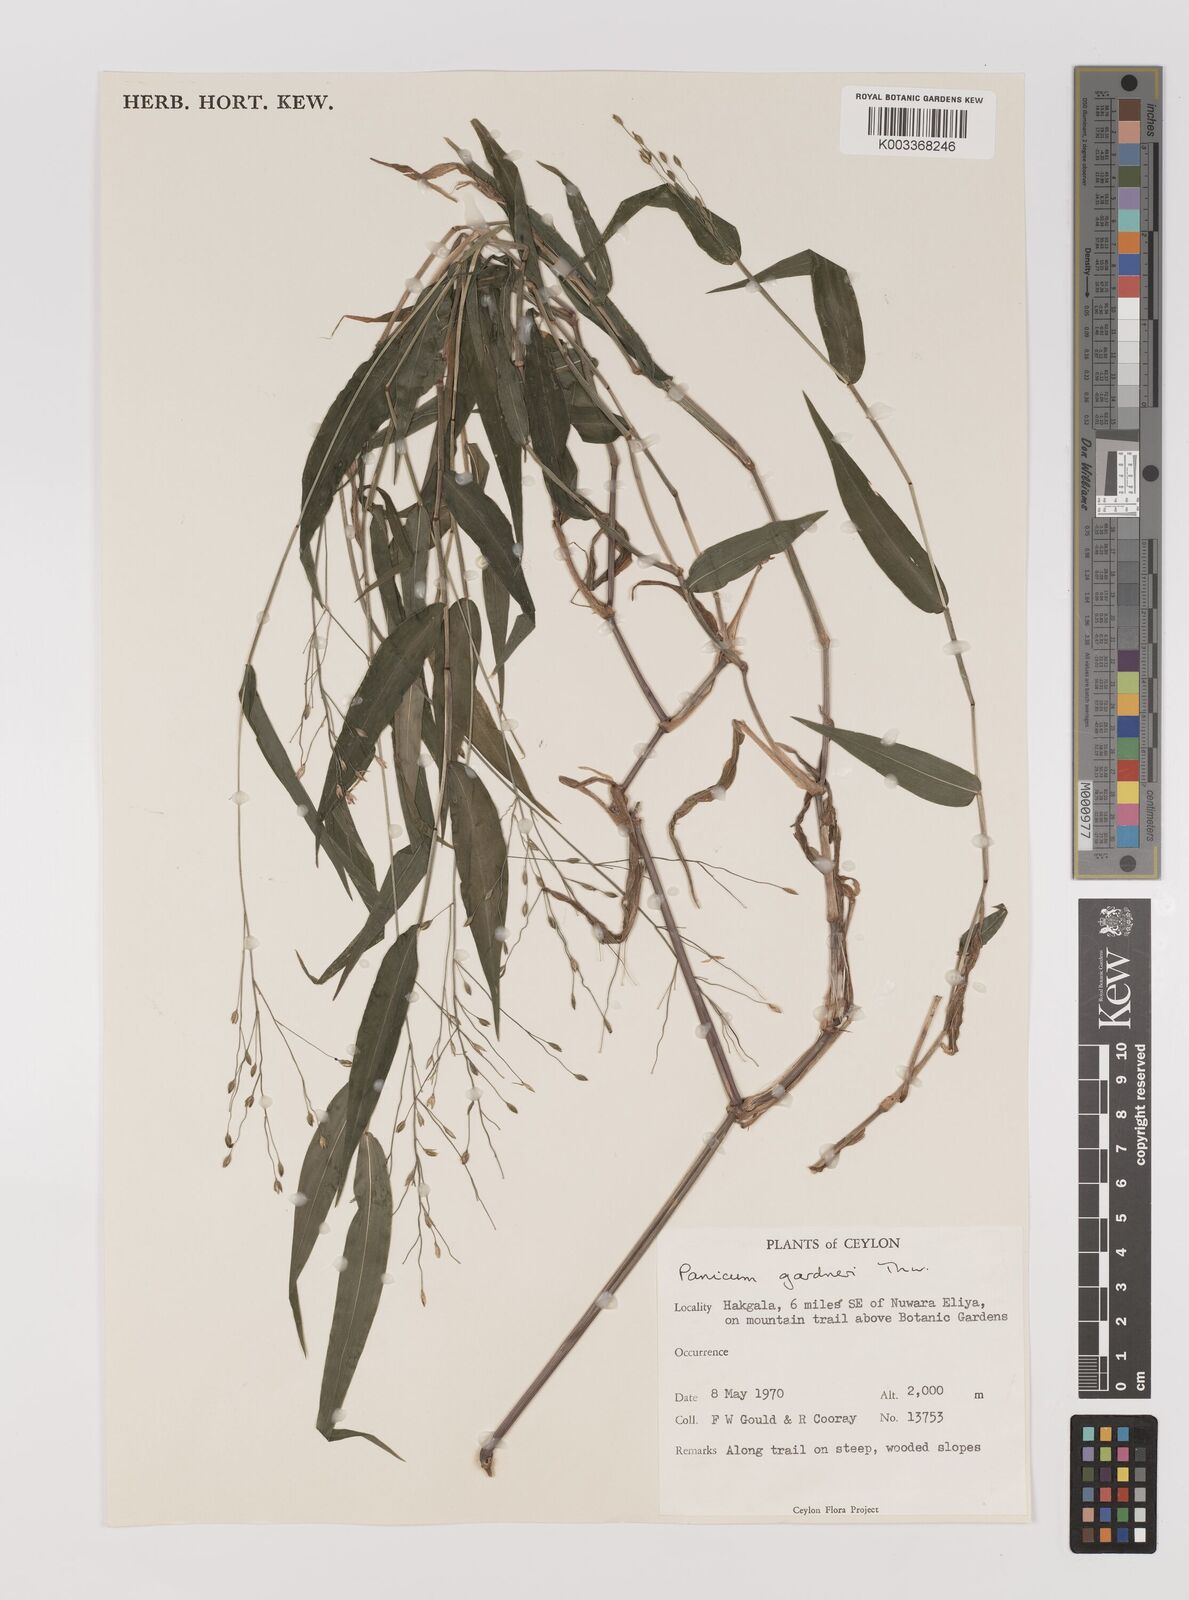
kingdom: Plantae
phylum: Tracheophyta
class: Liliopsida
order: Poales
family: Poaceae
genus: Panicum
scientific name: Panicum gardneri
